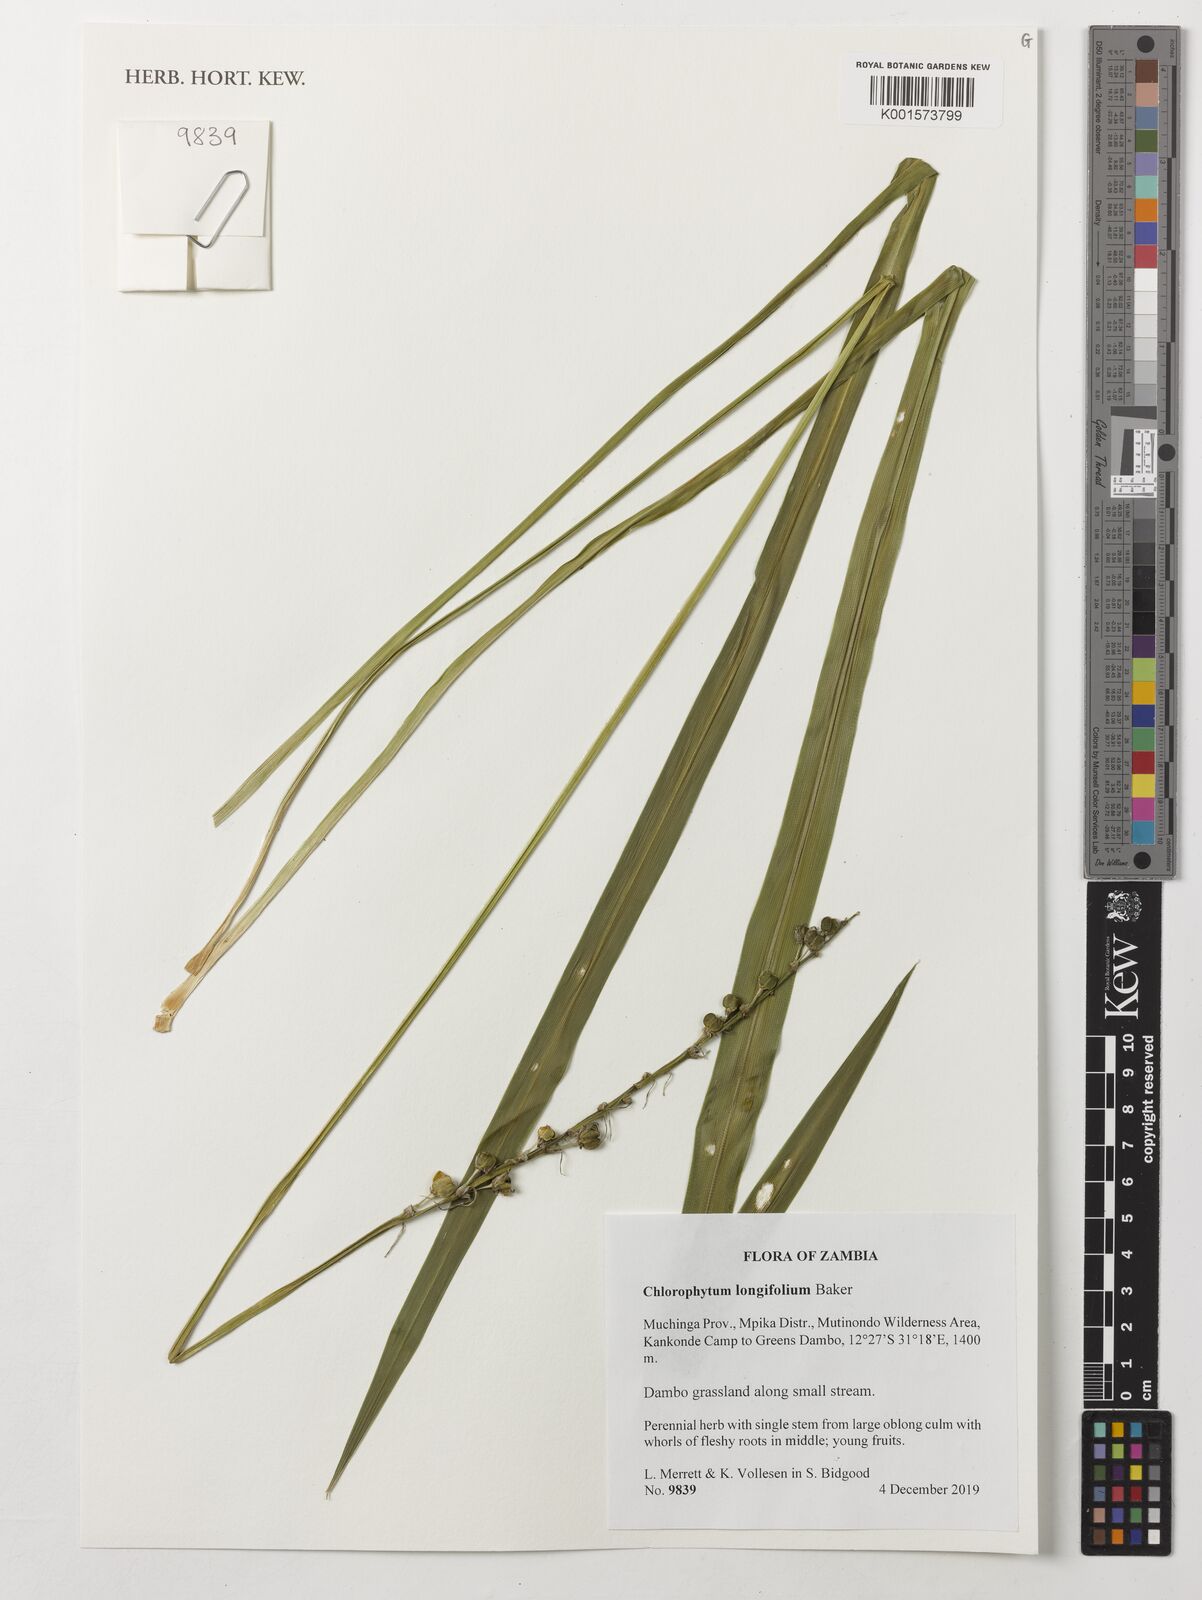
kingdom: Plantae
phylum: Tracheophyta
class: Liliopsida
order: Asparagales
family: Asparagaceae
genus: Chlorophytum
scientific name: Chlorophytum longifolium
